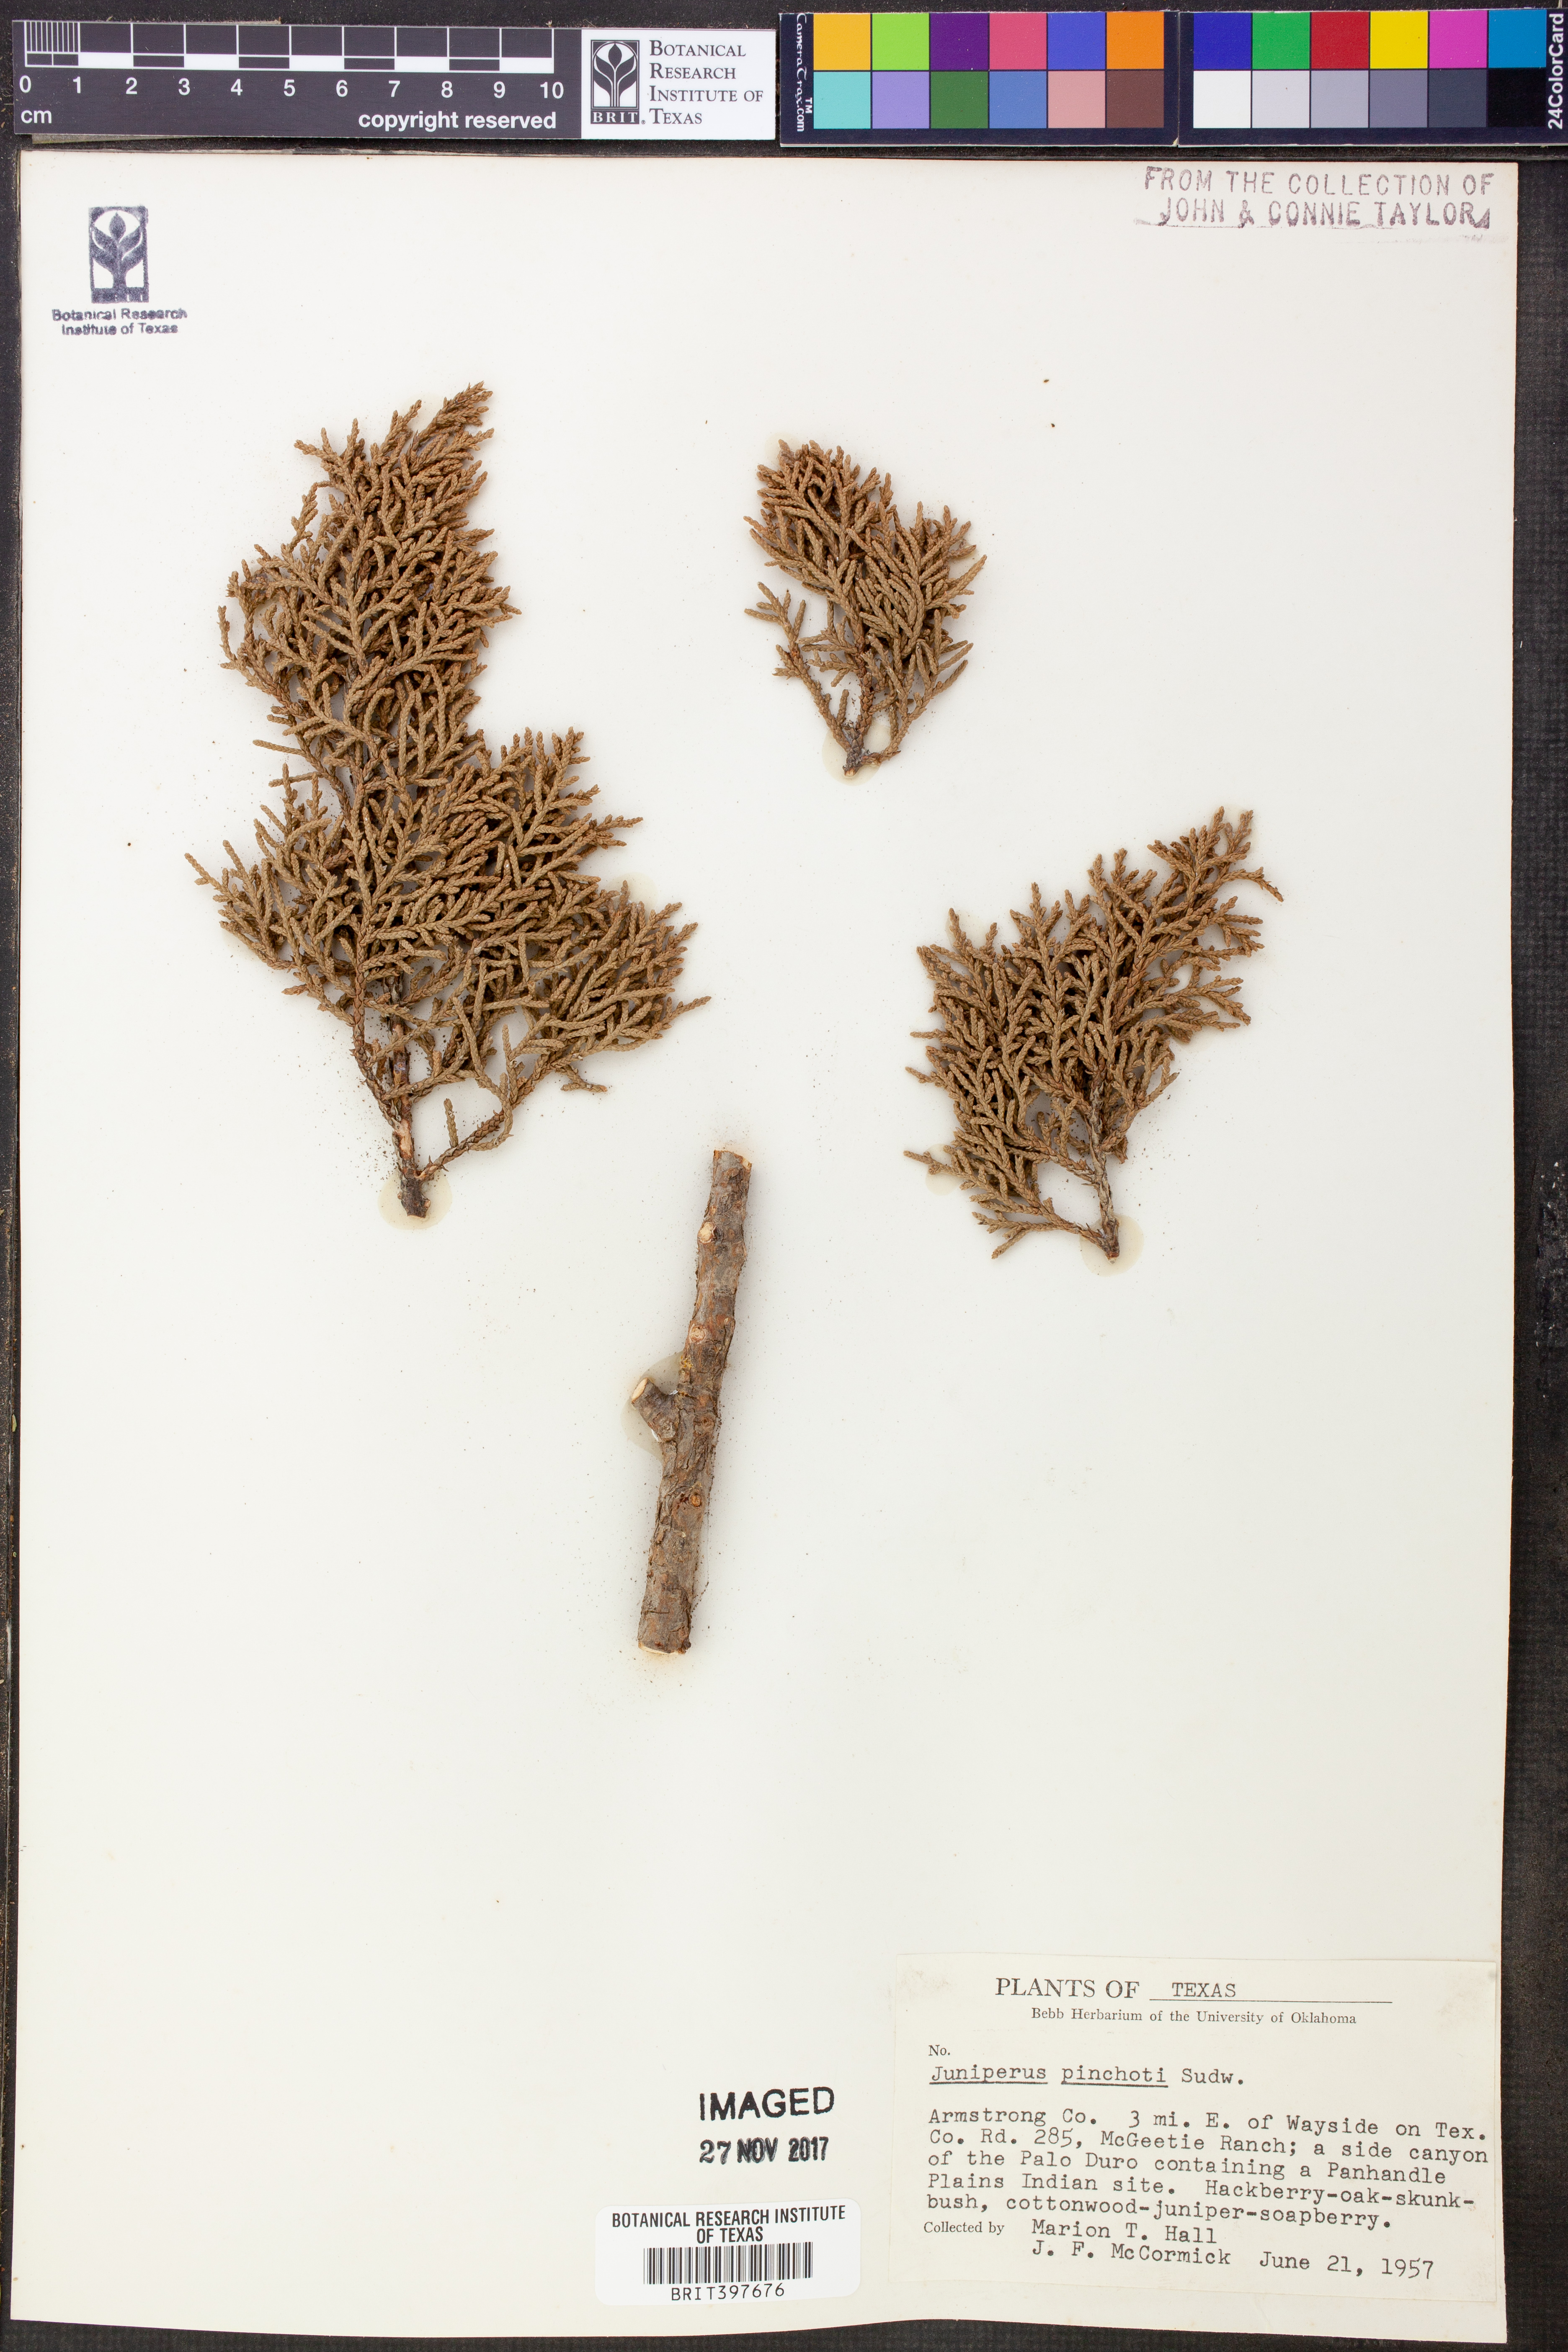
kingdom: Plantae
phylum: Tracheophyta
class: Pinopsida
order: Pinales
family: Cupressaceae
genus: Juniperus
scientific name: Juniperus pinchotii
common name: Pinchot juniper
